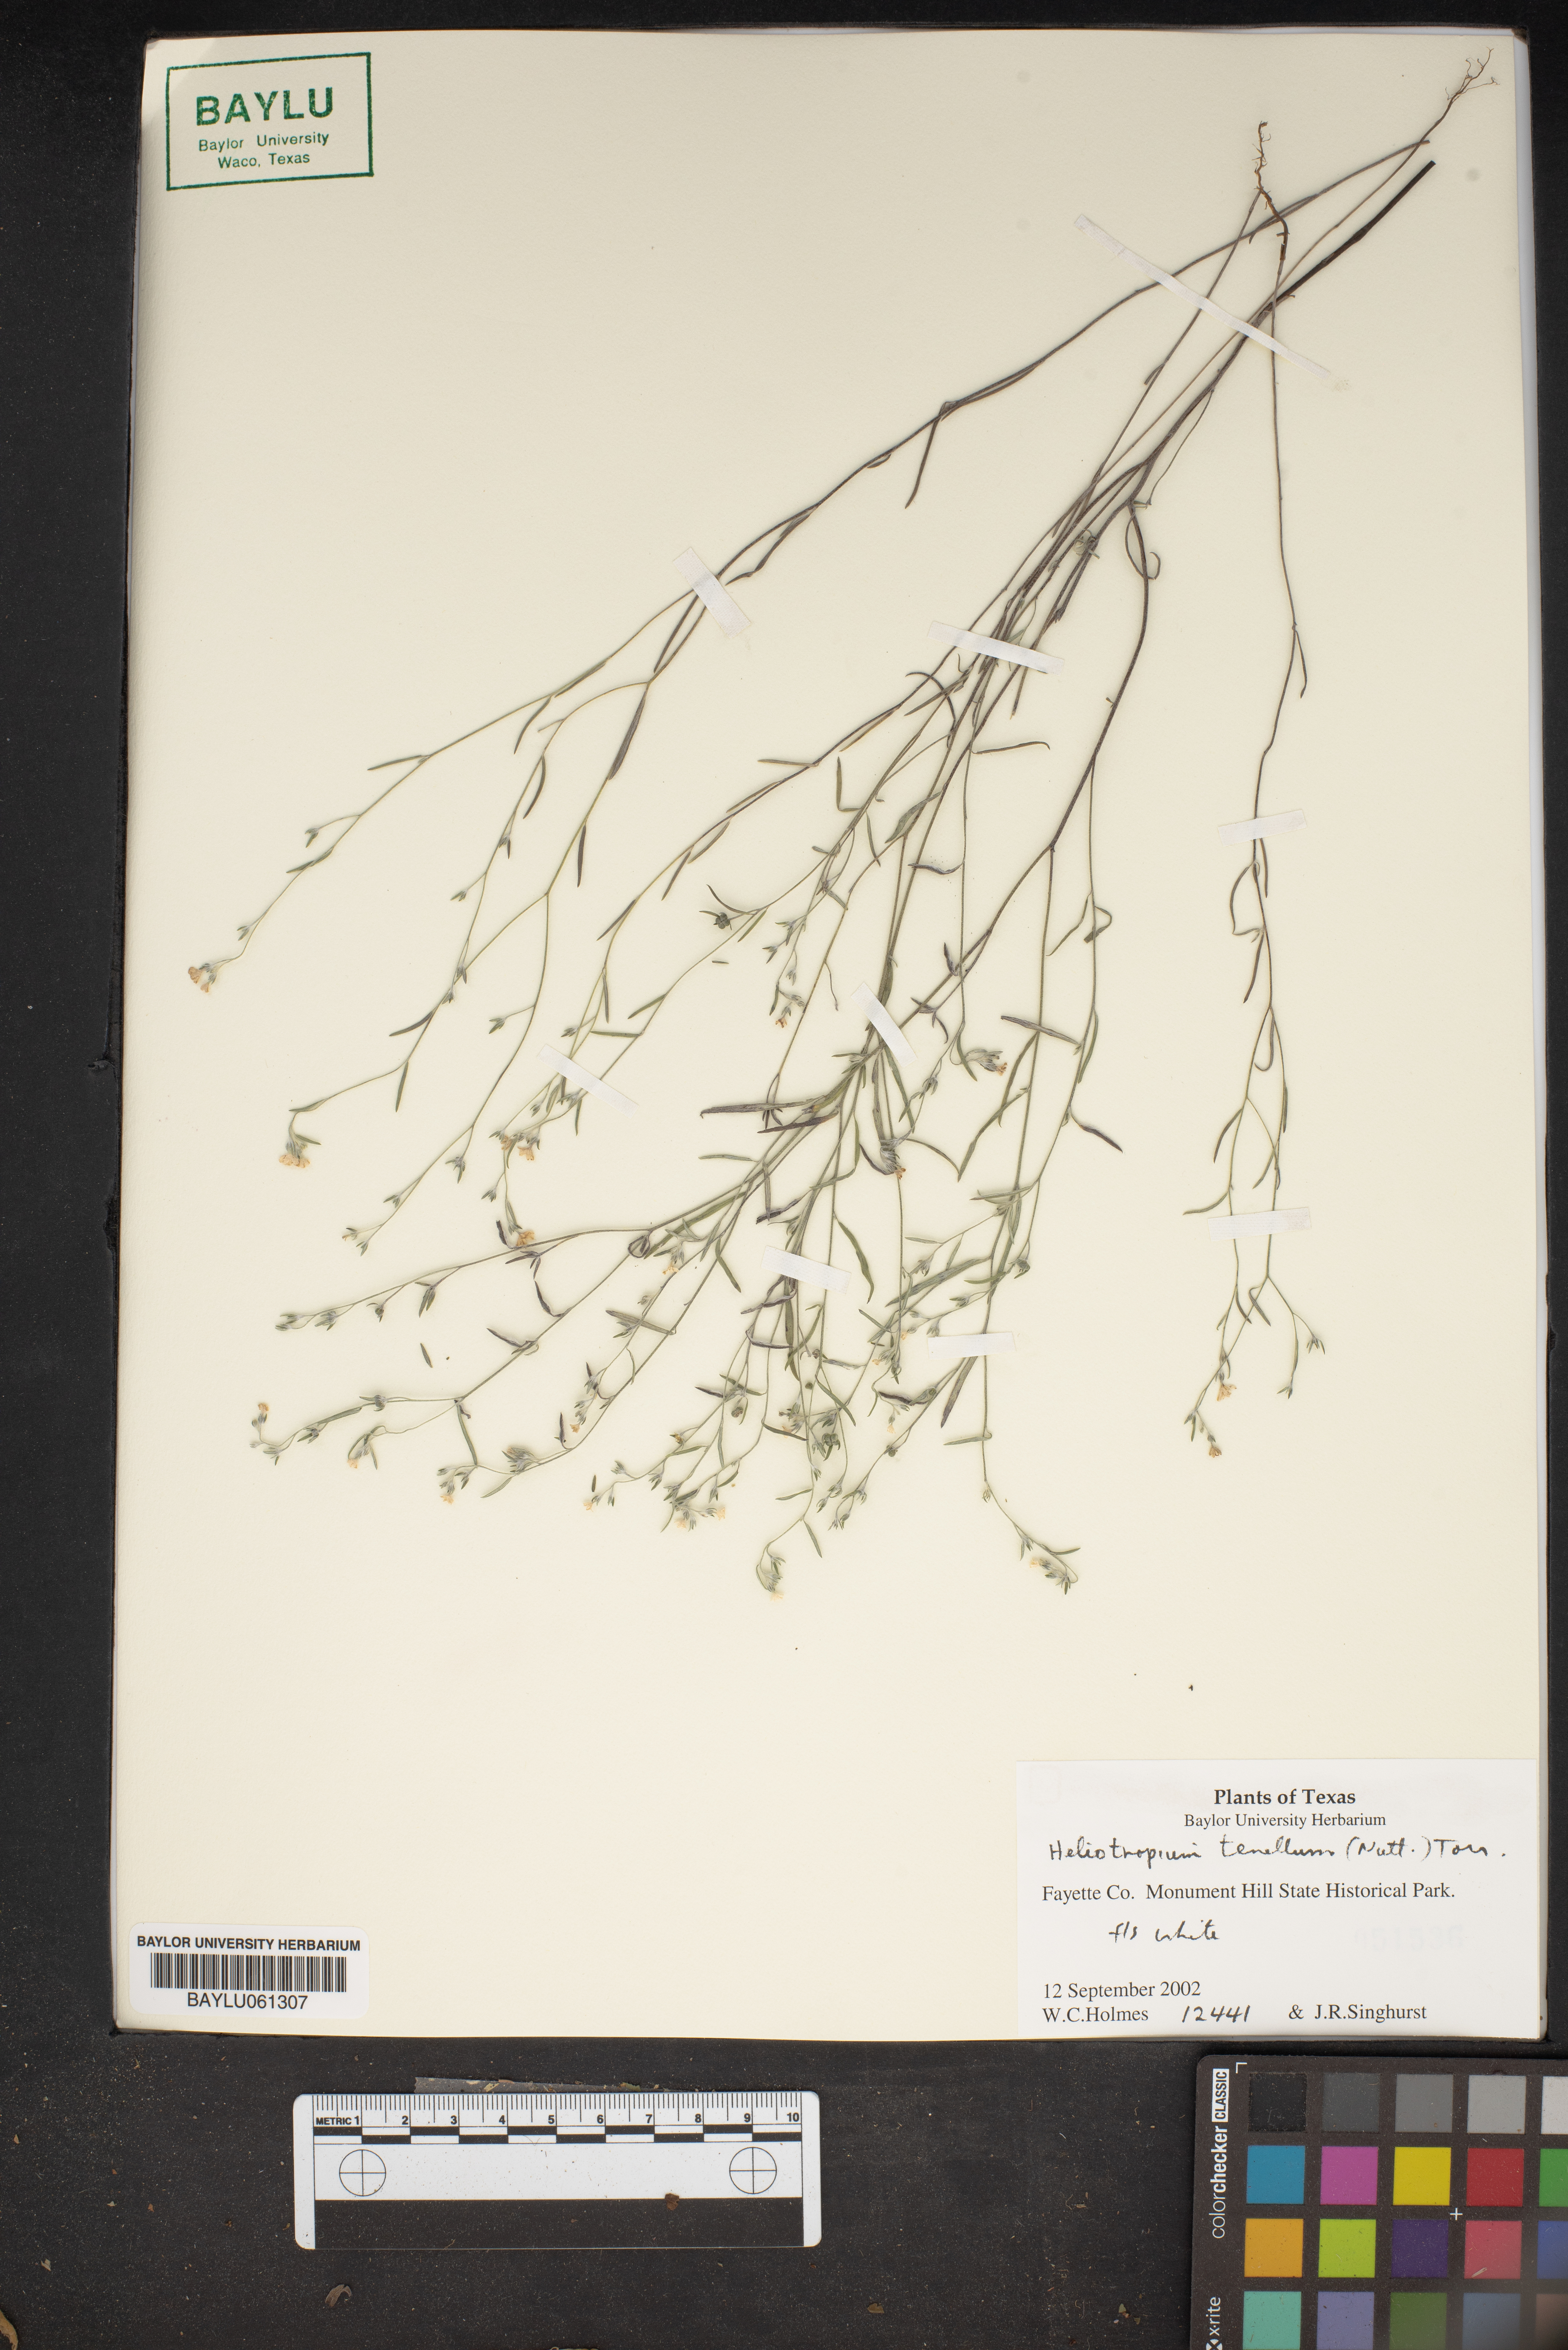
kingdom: Plantae
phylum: Tracheophyta
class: Magnoliopsida
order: Boraginales
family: Heliotropiaceae
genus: Euploca
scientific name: Euploca tenella
